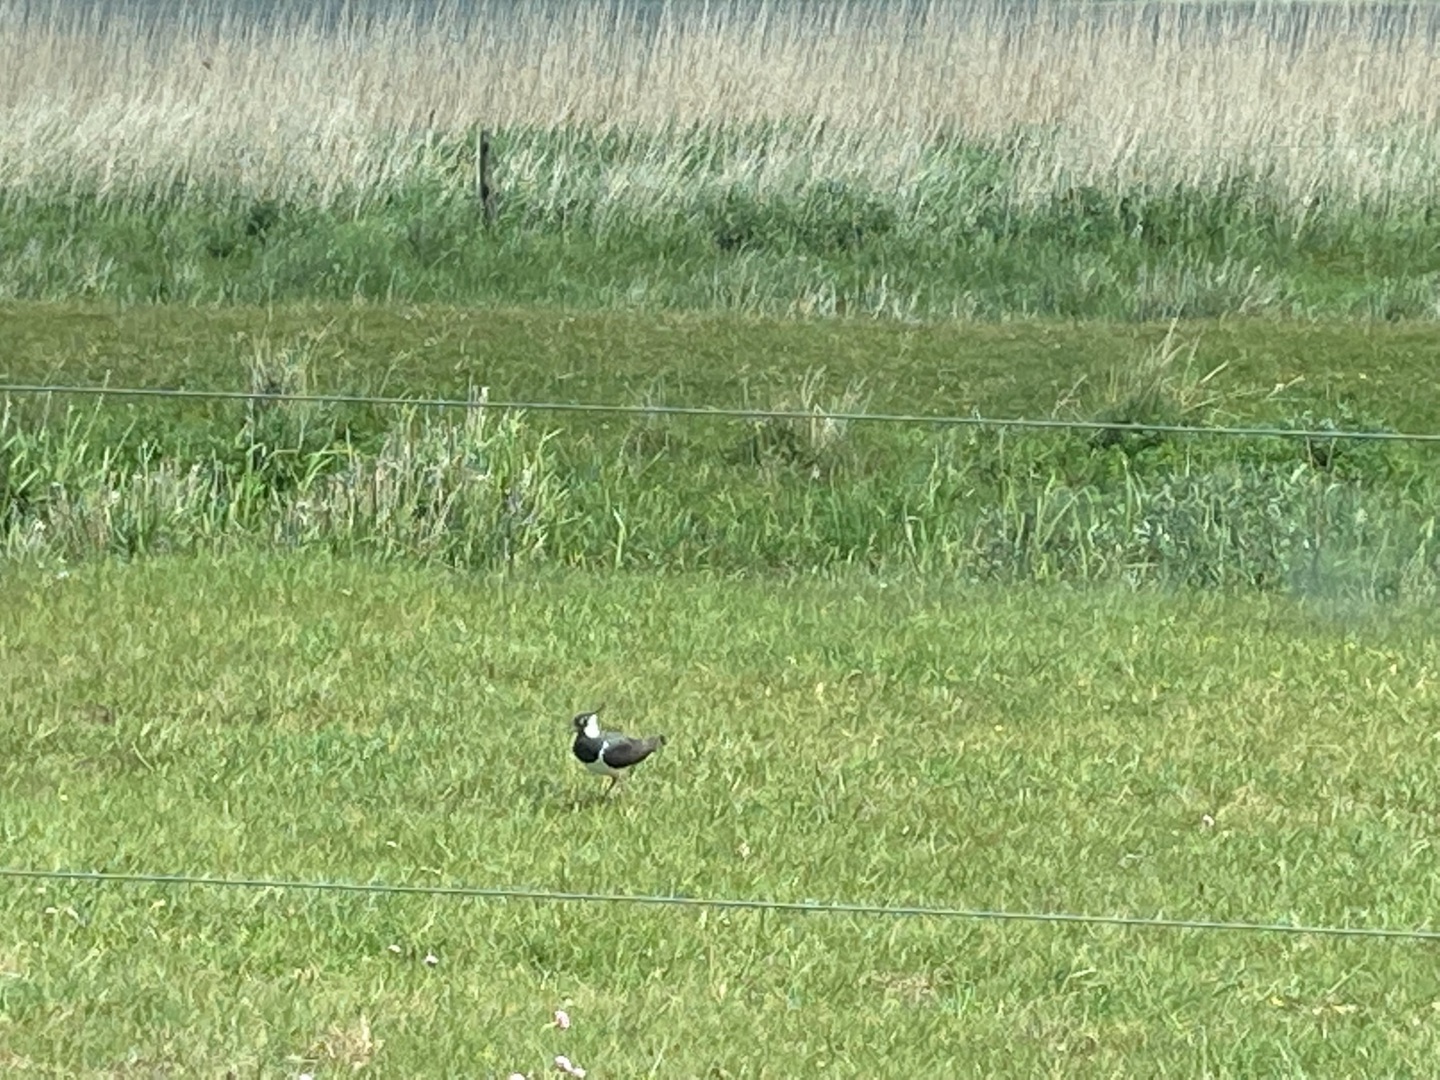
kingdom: Animalia
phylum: Chordata
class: Aves
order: Charadriiformes
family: Charadriidae
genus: Vanellus
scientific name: Vanellus vanellus
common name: Vibe
